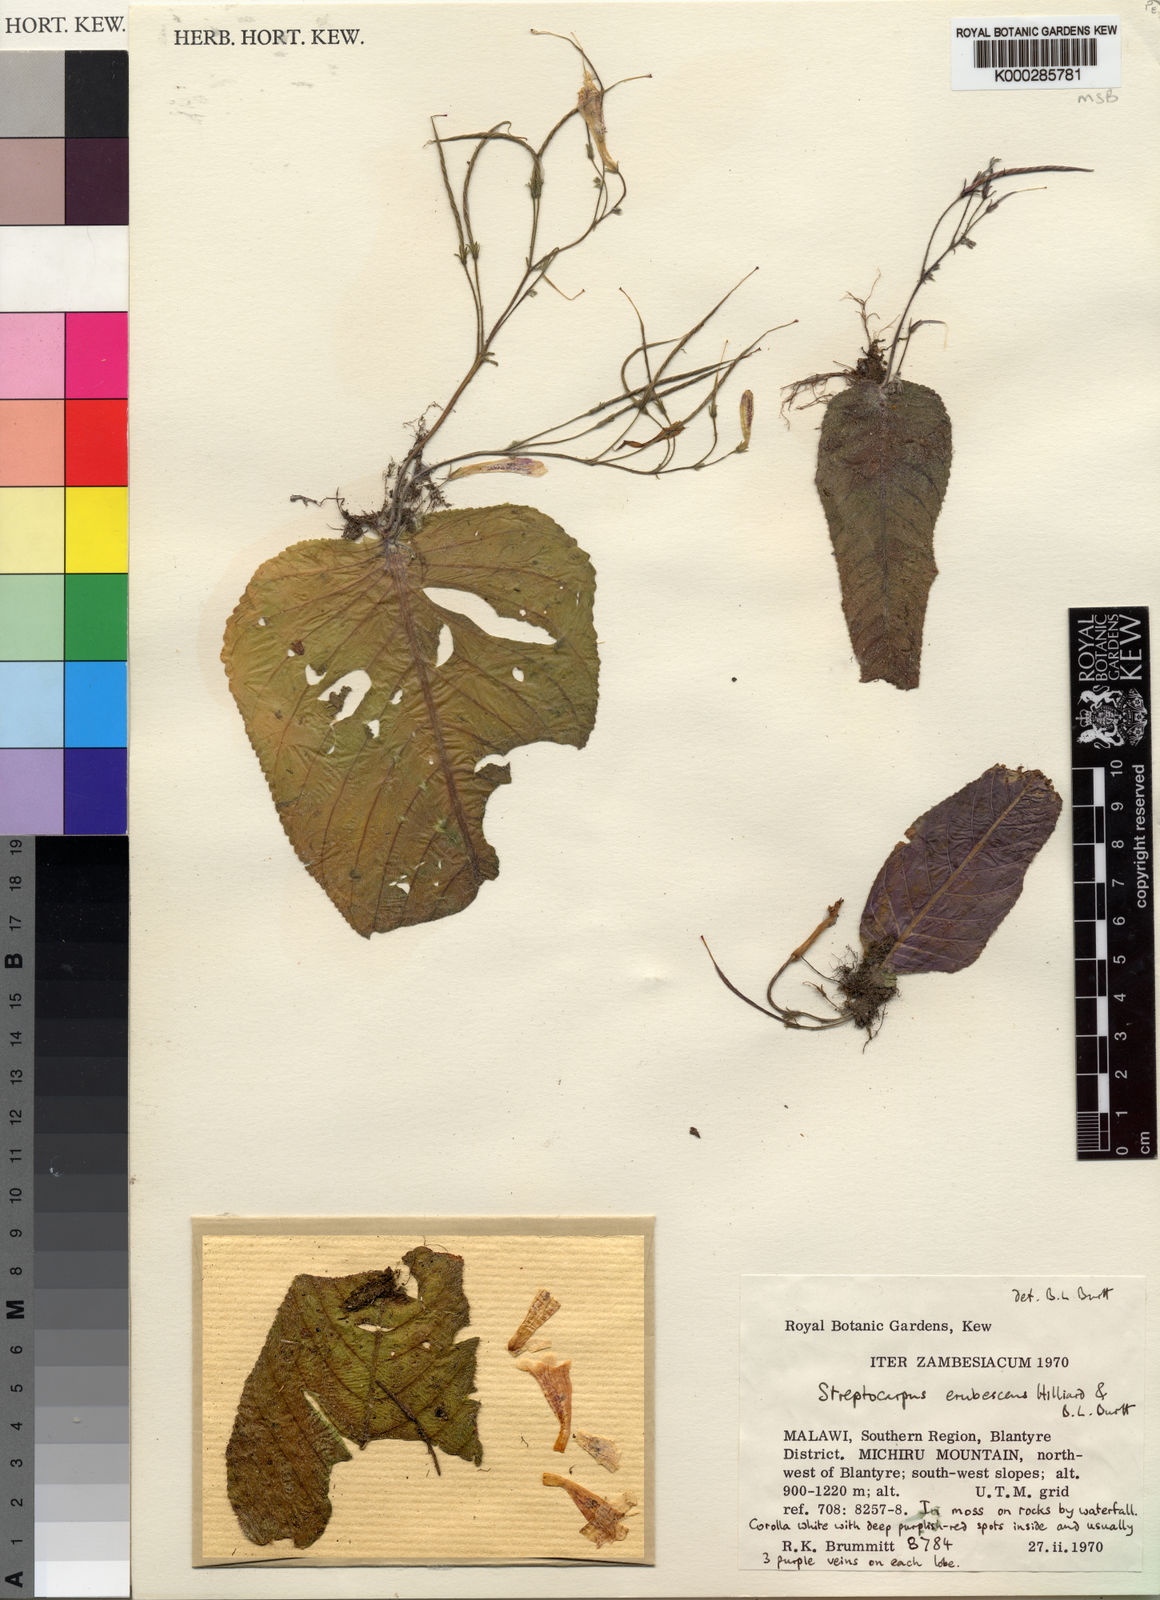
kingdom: Plantae
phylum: Tracheophyta
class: Magnoliopsida
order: Lamiales
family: Gesneriaceae
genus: Streptocarpus
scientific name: Streptocarpus erubescens
